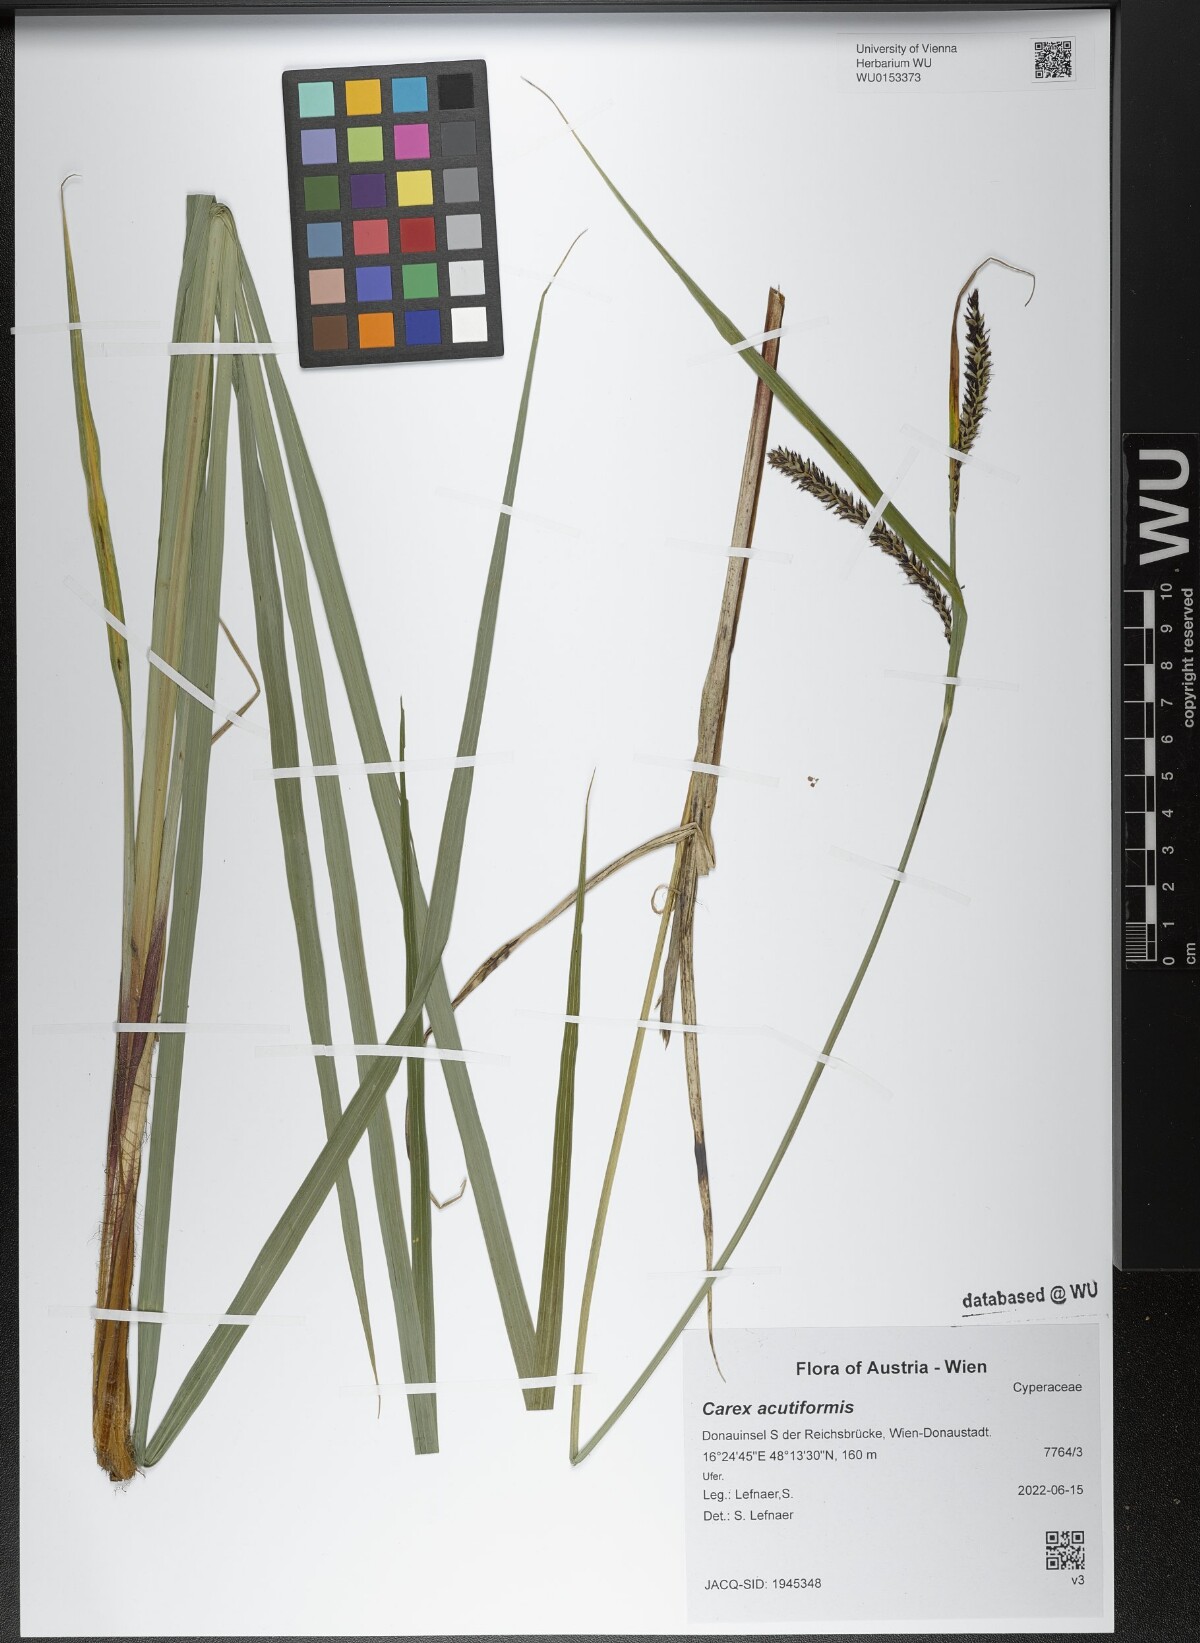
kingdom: Plantae
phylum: Tracheophyta
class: Liliopsida
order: Poales
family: Cyperaceae
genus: Carex
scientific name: Carex acutiformis
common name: Lesser pond-sedge
